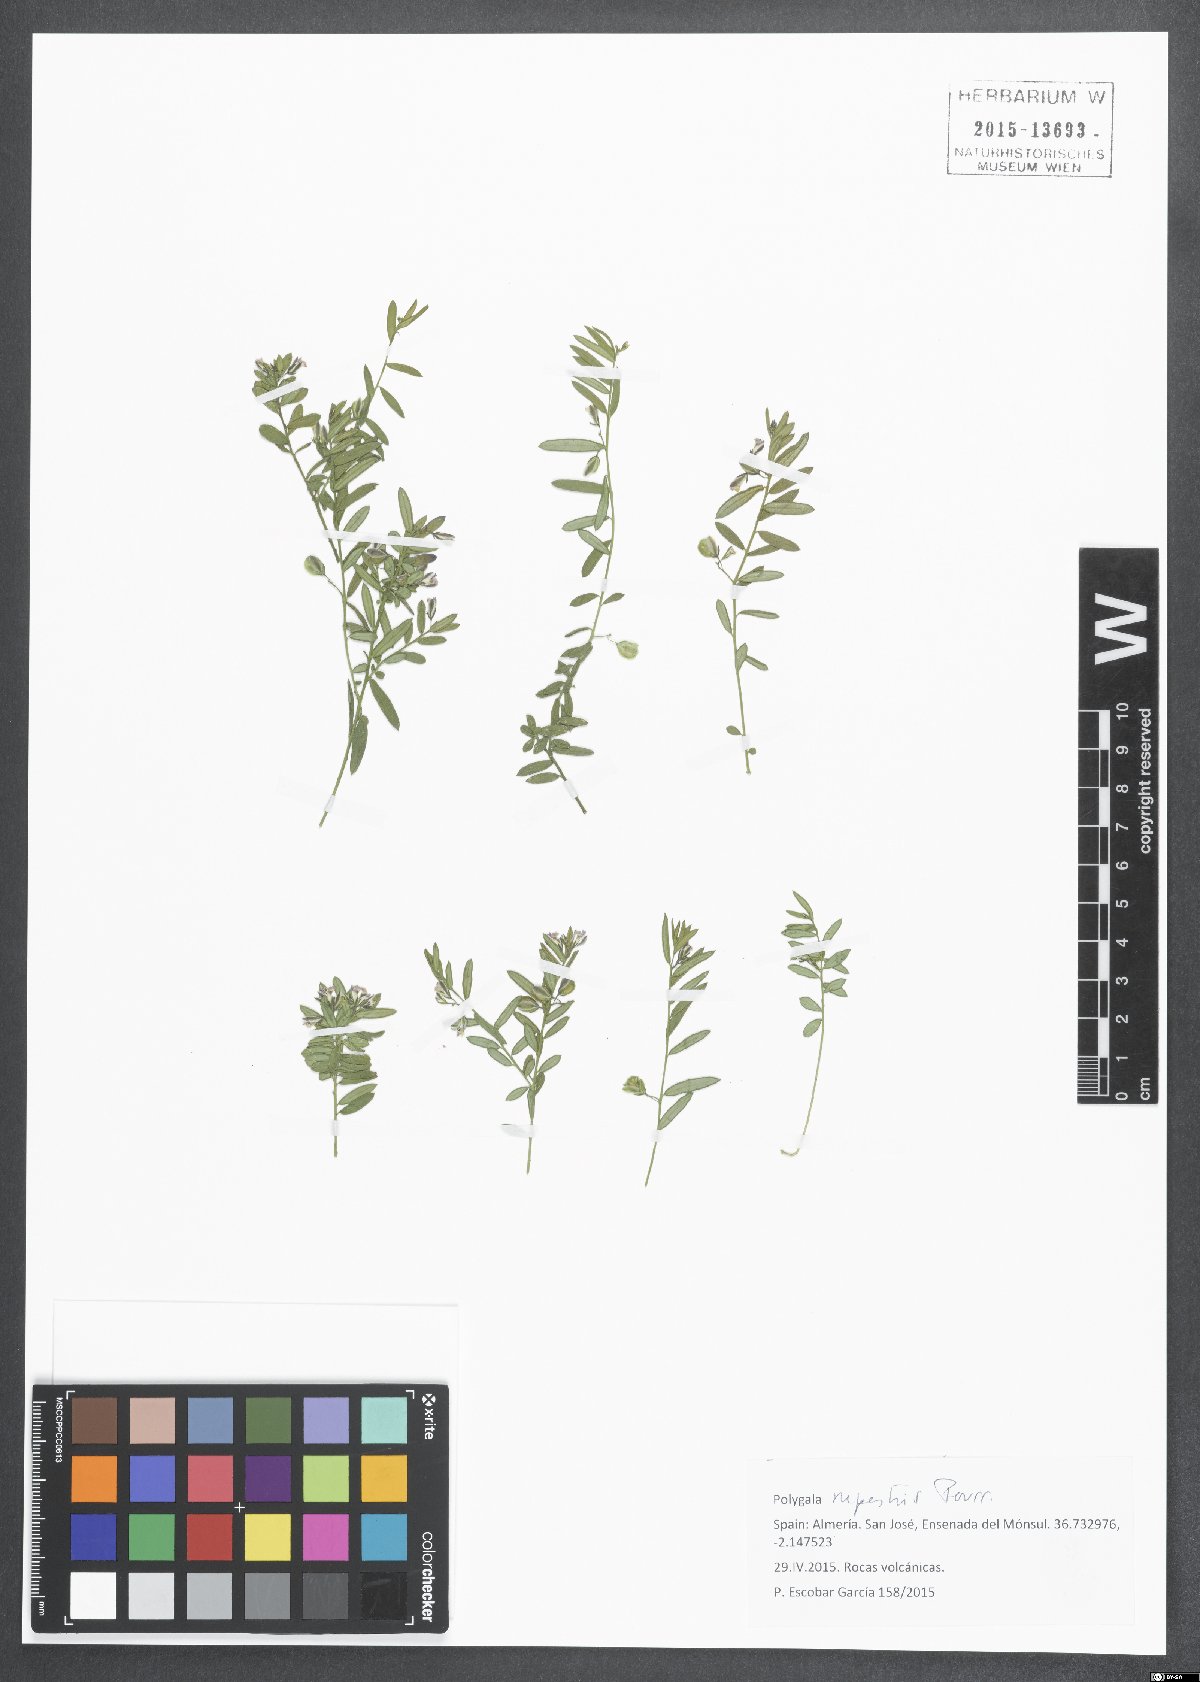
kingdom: Plantae
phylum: Tracheophyta
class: Magnoliopsida
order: Fabales
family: Polygalaceae
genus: Polygala
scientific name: Polygala rupestris
